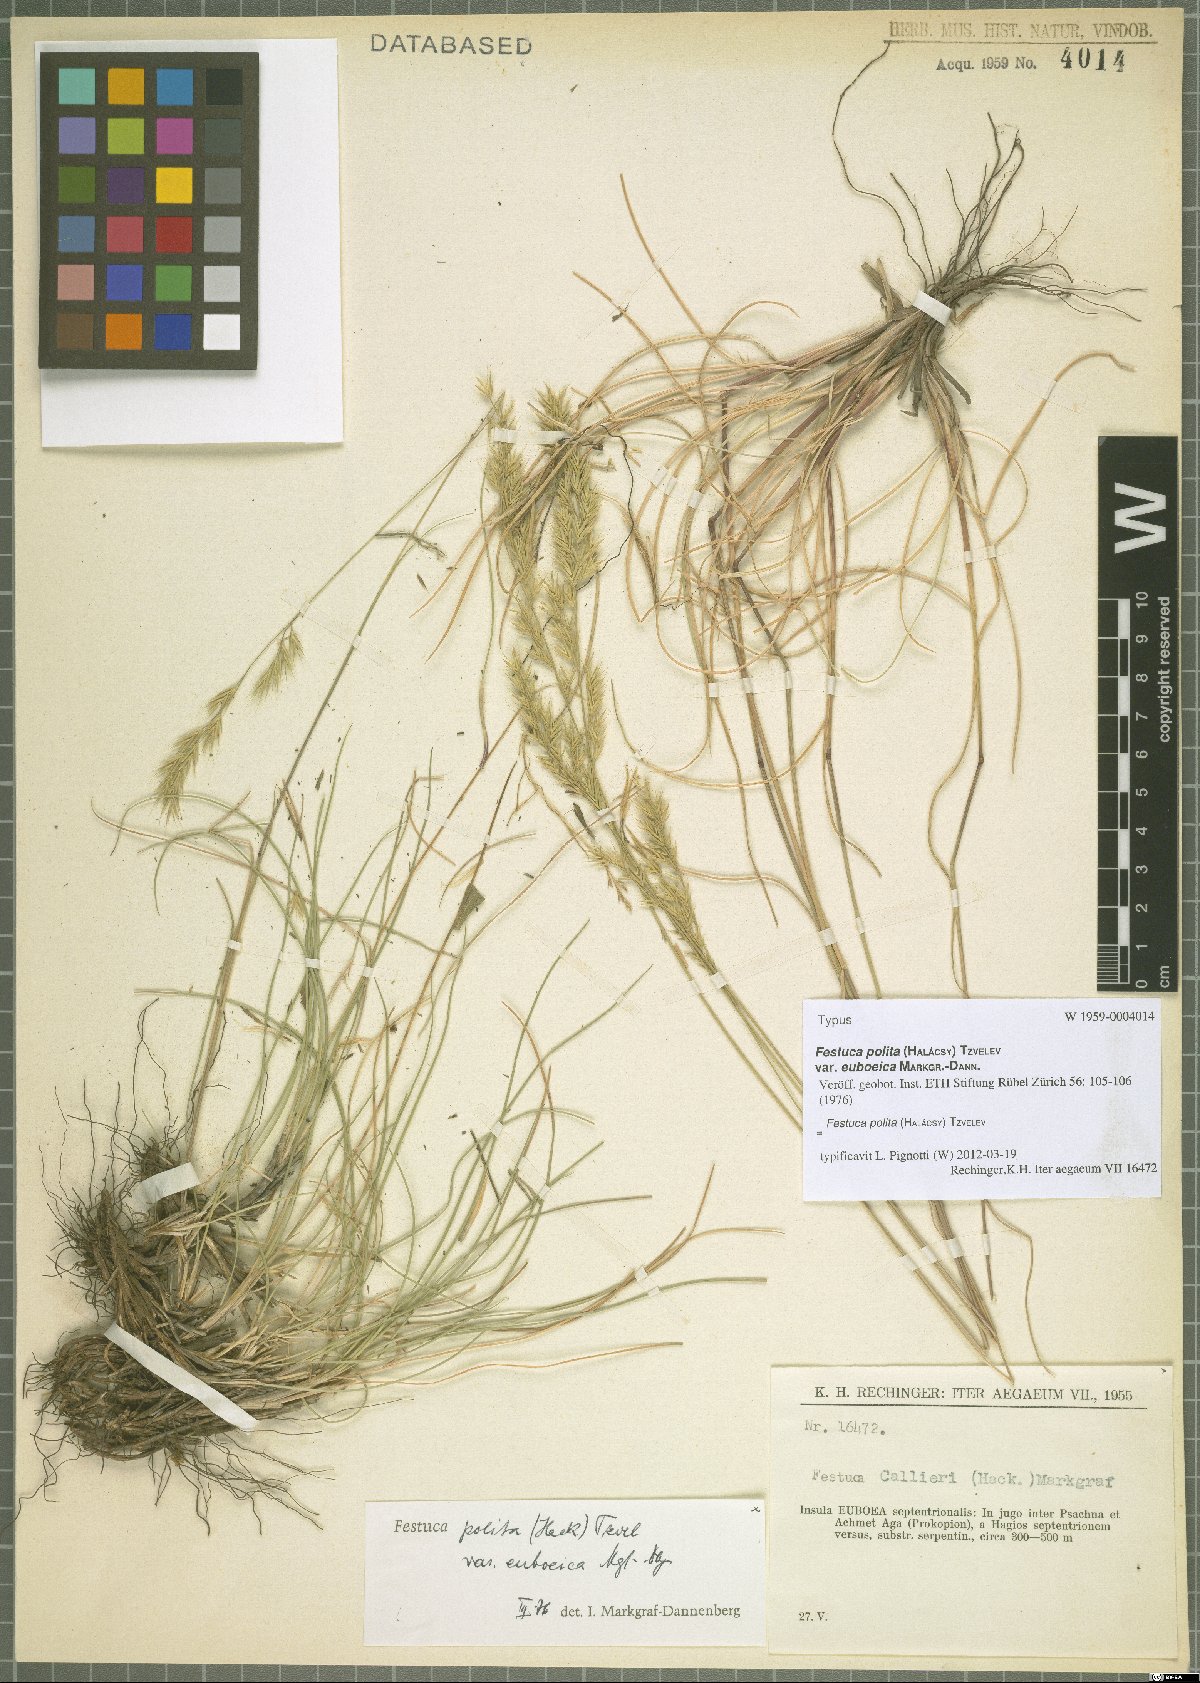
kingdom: Plantae
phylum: Tracheophyta
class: Liliopsida
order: Poales
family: Poaceae
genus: Festuca
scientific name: Festuca polita
